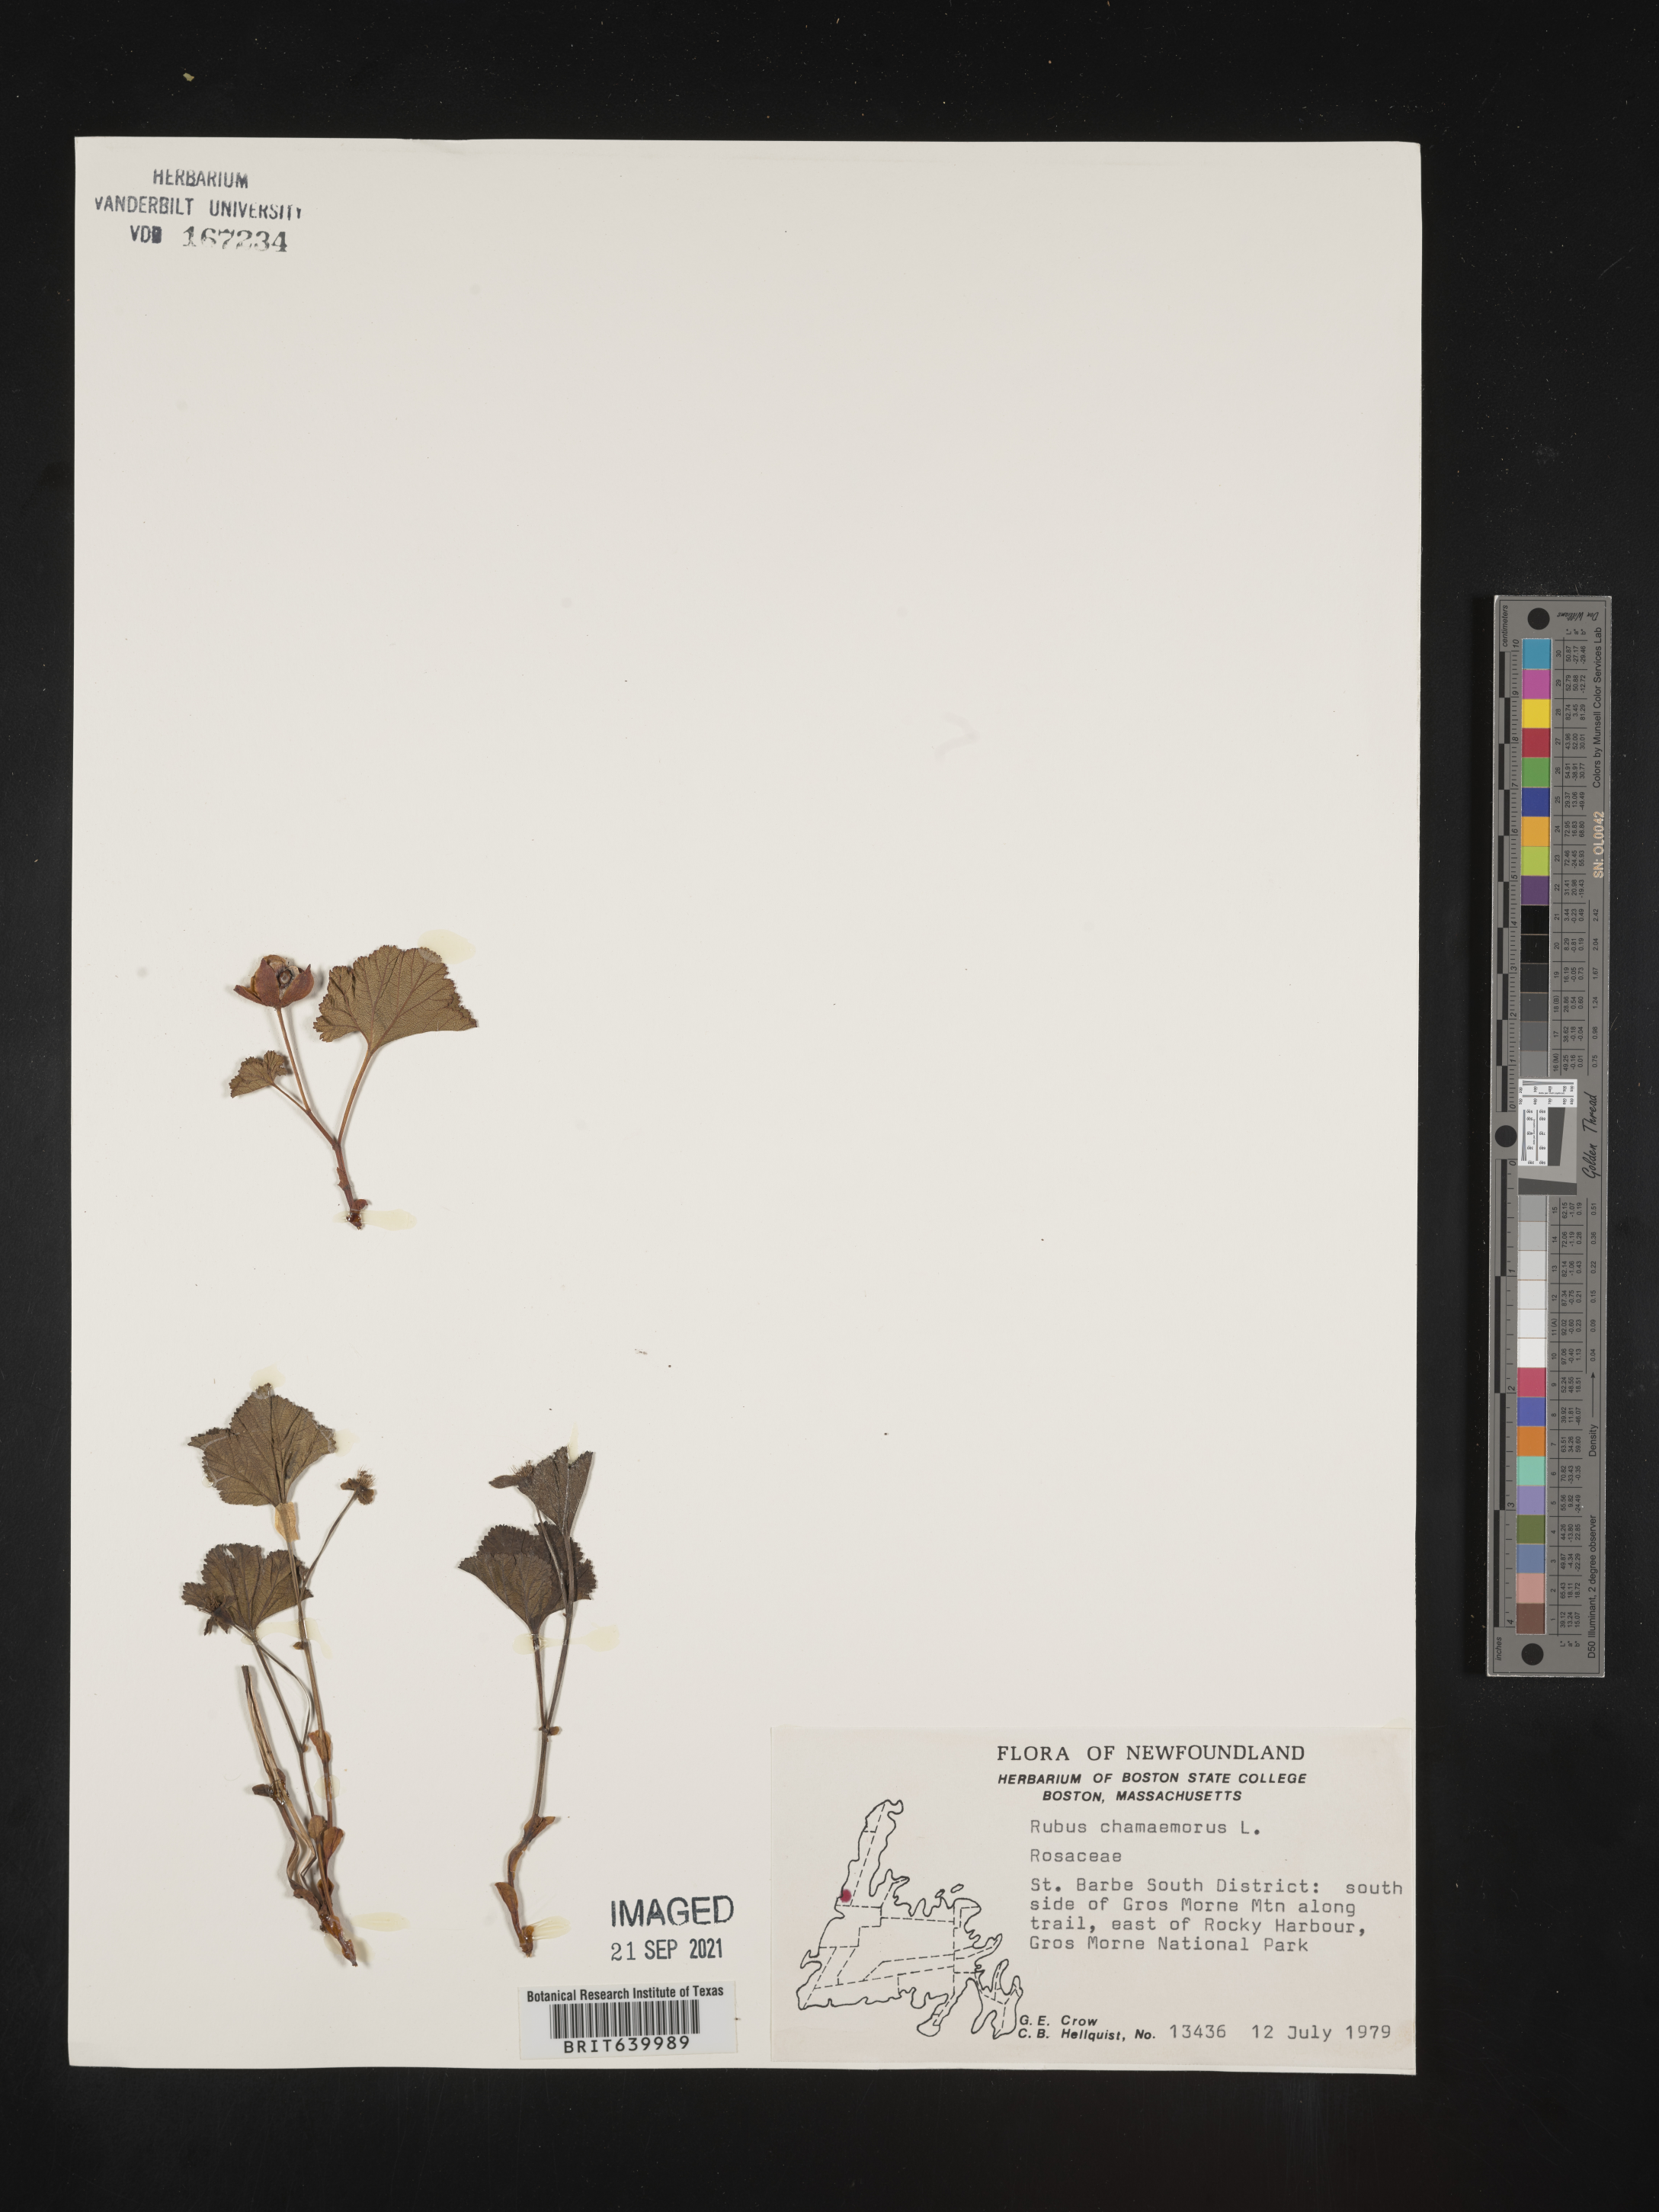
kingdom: Plantae
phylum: Tracheophyta
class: Magnoliopsida
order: Rosales
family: Rosaceae
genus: Rubus
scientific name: Rubus
